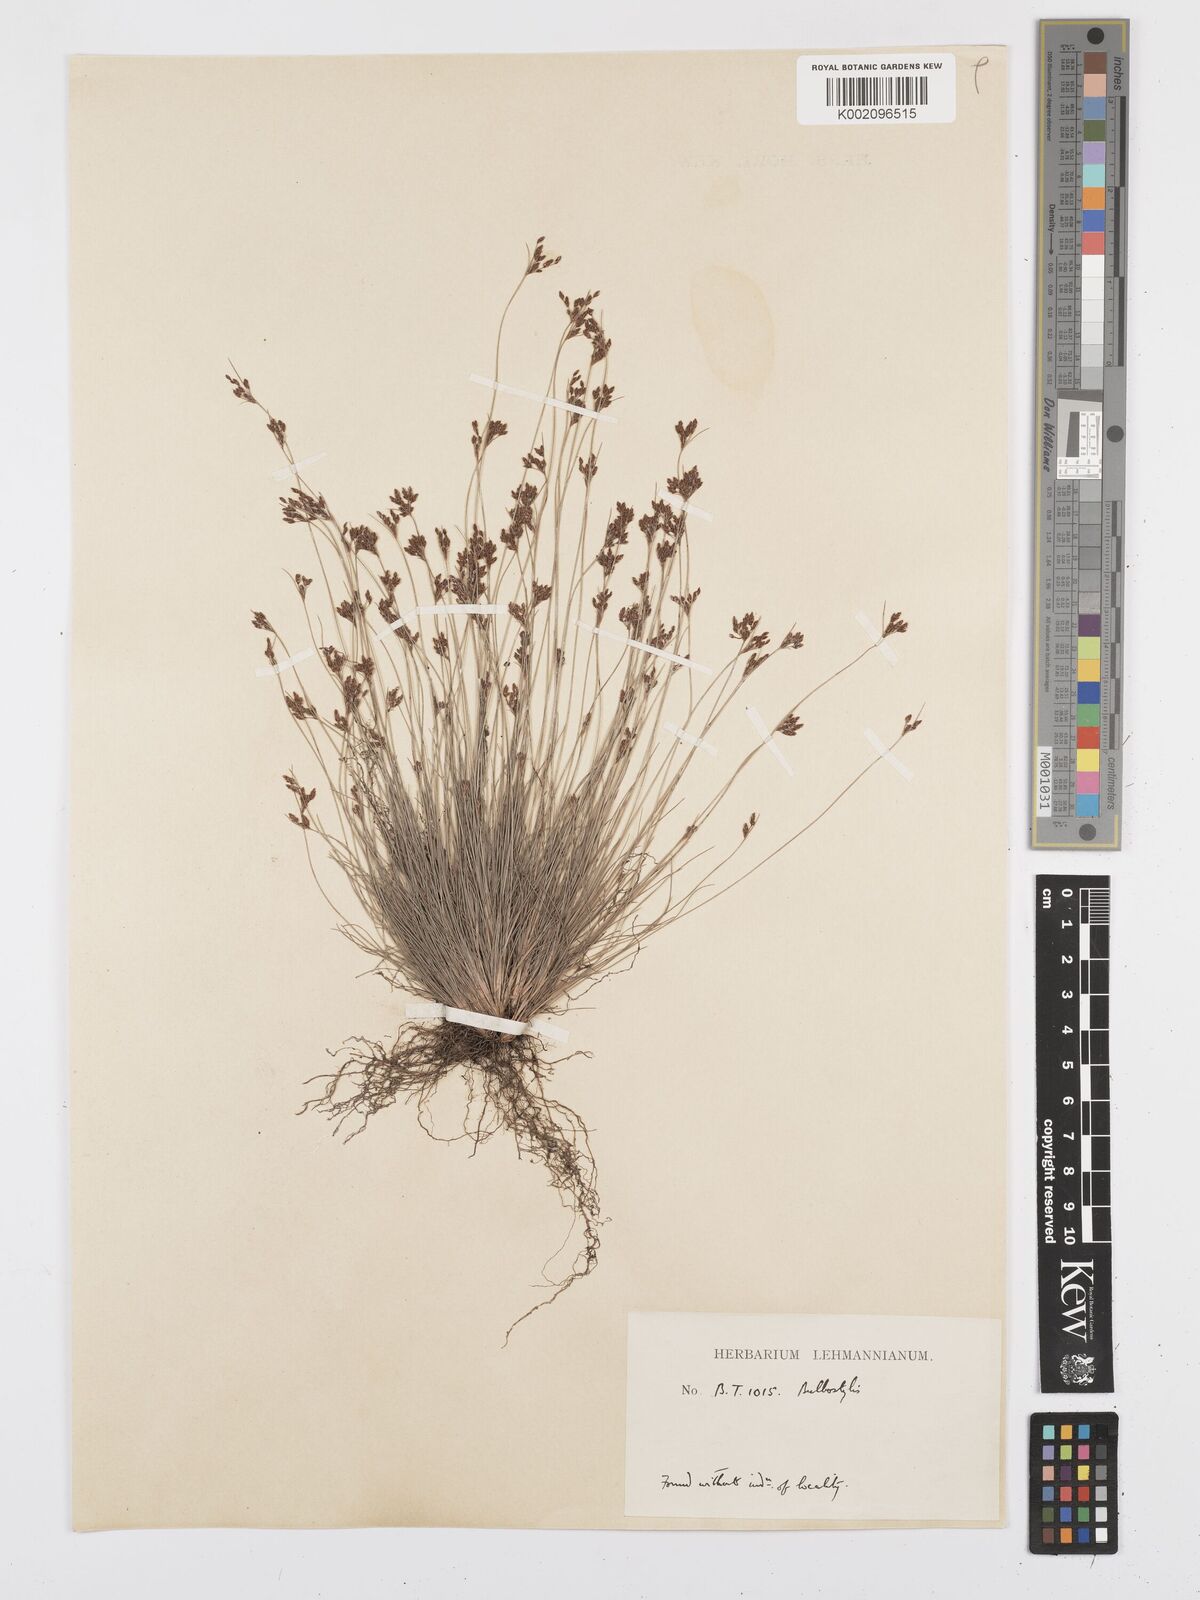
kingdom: Plantae
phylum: Tracheophyta
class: Liliopsida
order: Poales
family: Cyperaceae
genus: Bulbostylis
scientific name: Bulbostylis
